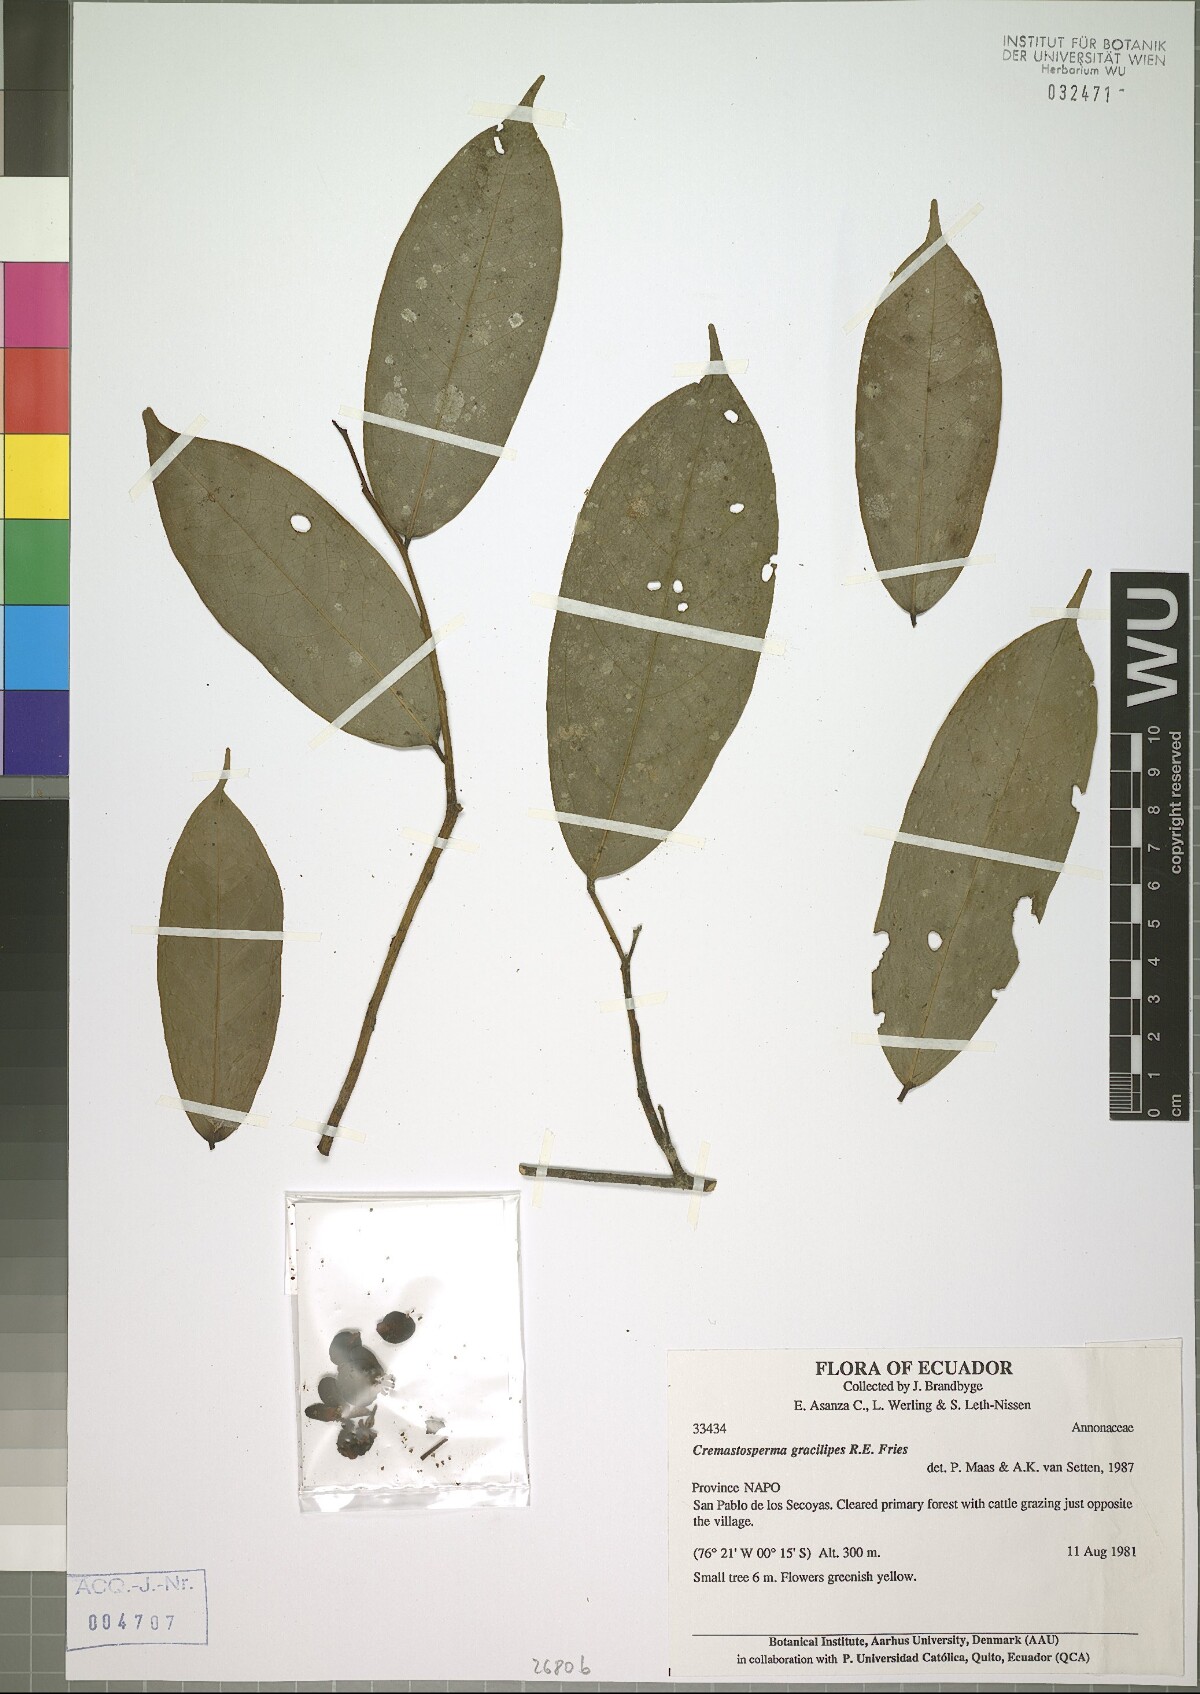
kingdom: Plantae
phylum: Tracheophyta
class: Magnoliopsida
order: Magnoliales
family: Annonaceae
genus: Cremastosperma
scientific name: Cremastosperma gracilipes
